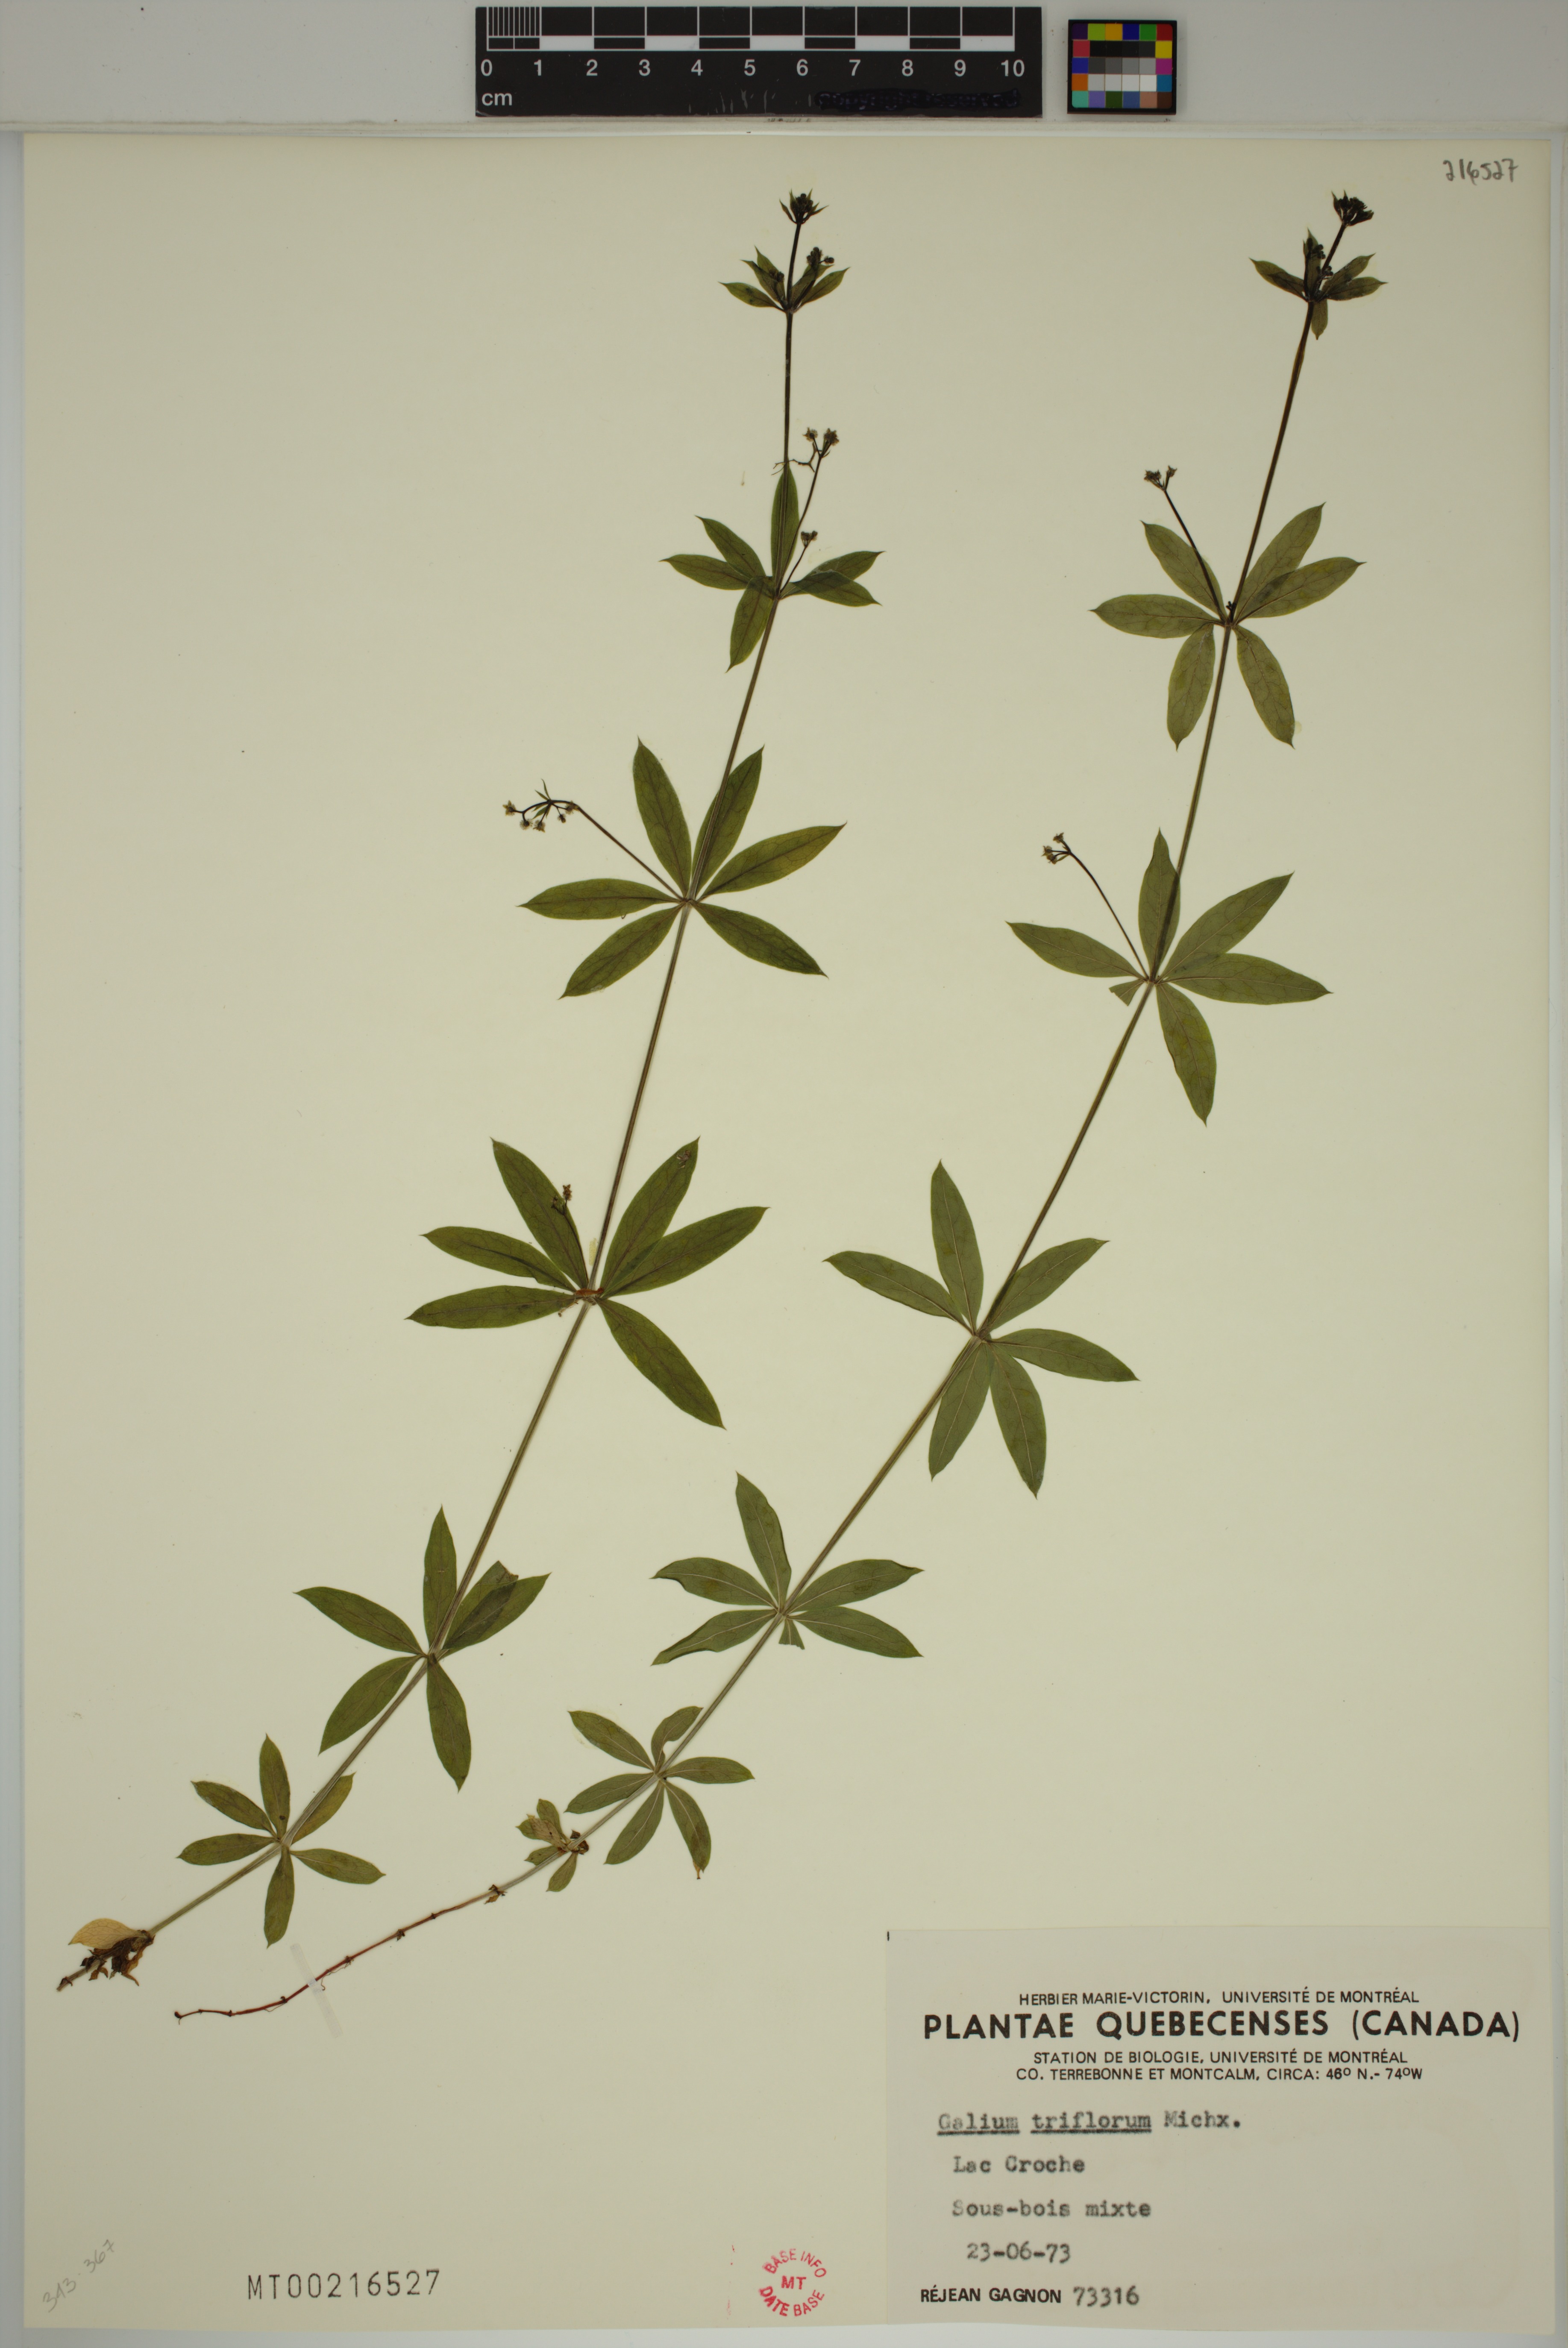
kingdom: Plantae
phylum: Tracheophyta
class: Magnoliopsida
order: Gentianales
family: Rubiaceae
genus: Galium
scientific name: Galium triflorum
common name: Fragrant bedstraw
